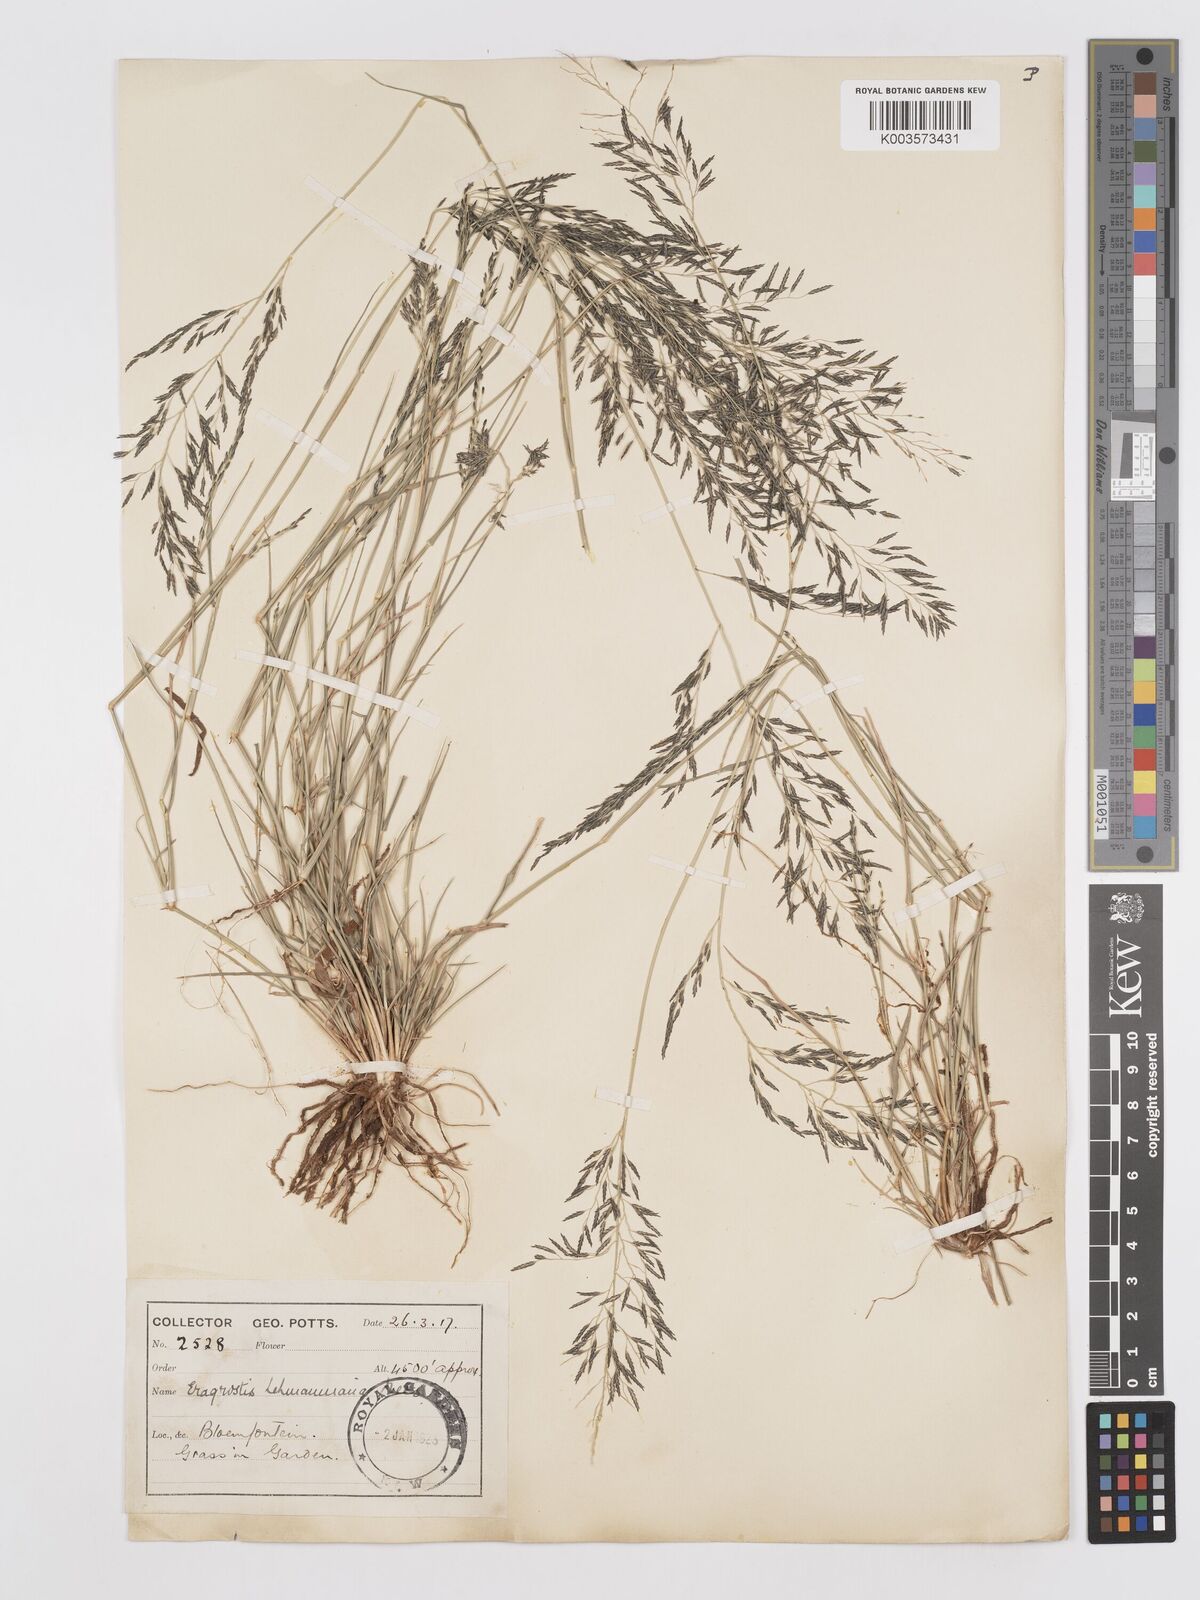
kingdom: Plantae
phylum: Tracheophyta
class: Liliopsida
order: Poales
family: Poaceae
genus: Eragrostis
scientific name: Eragrostis lehmanniana
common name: Lehmann lovegrass
